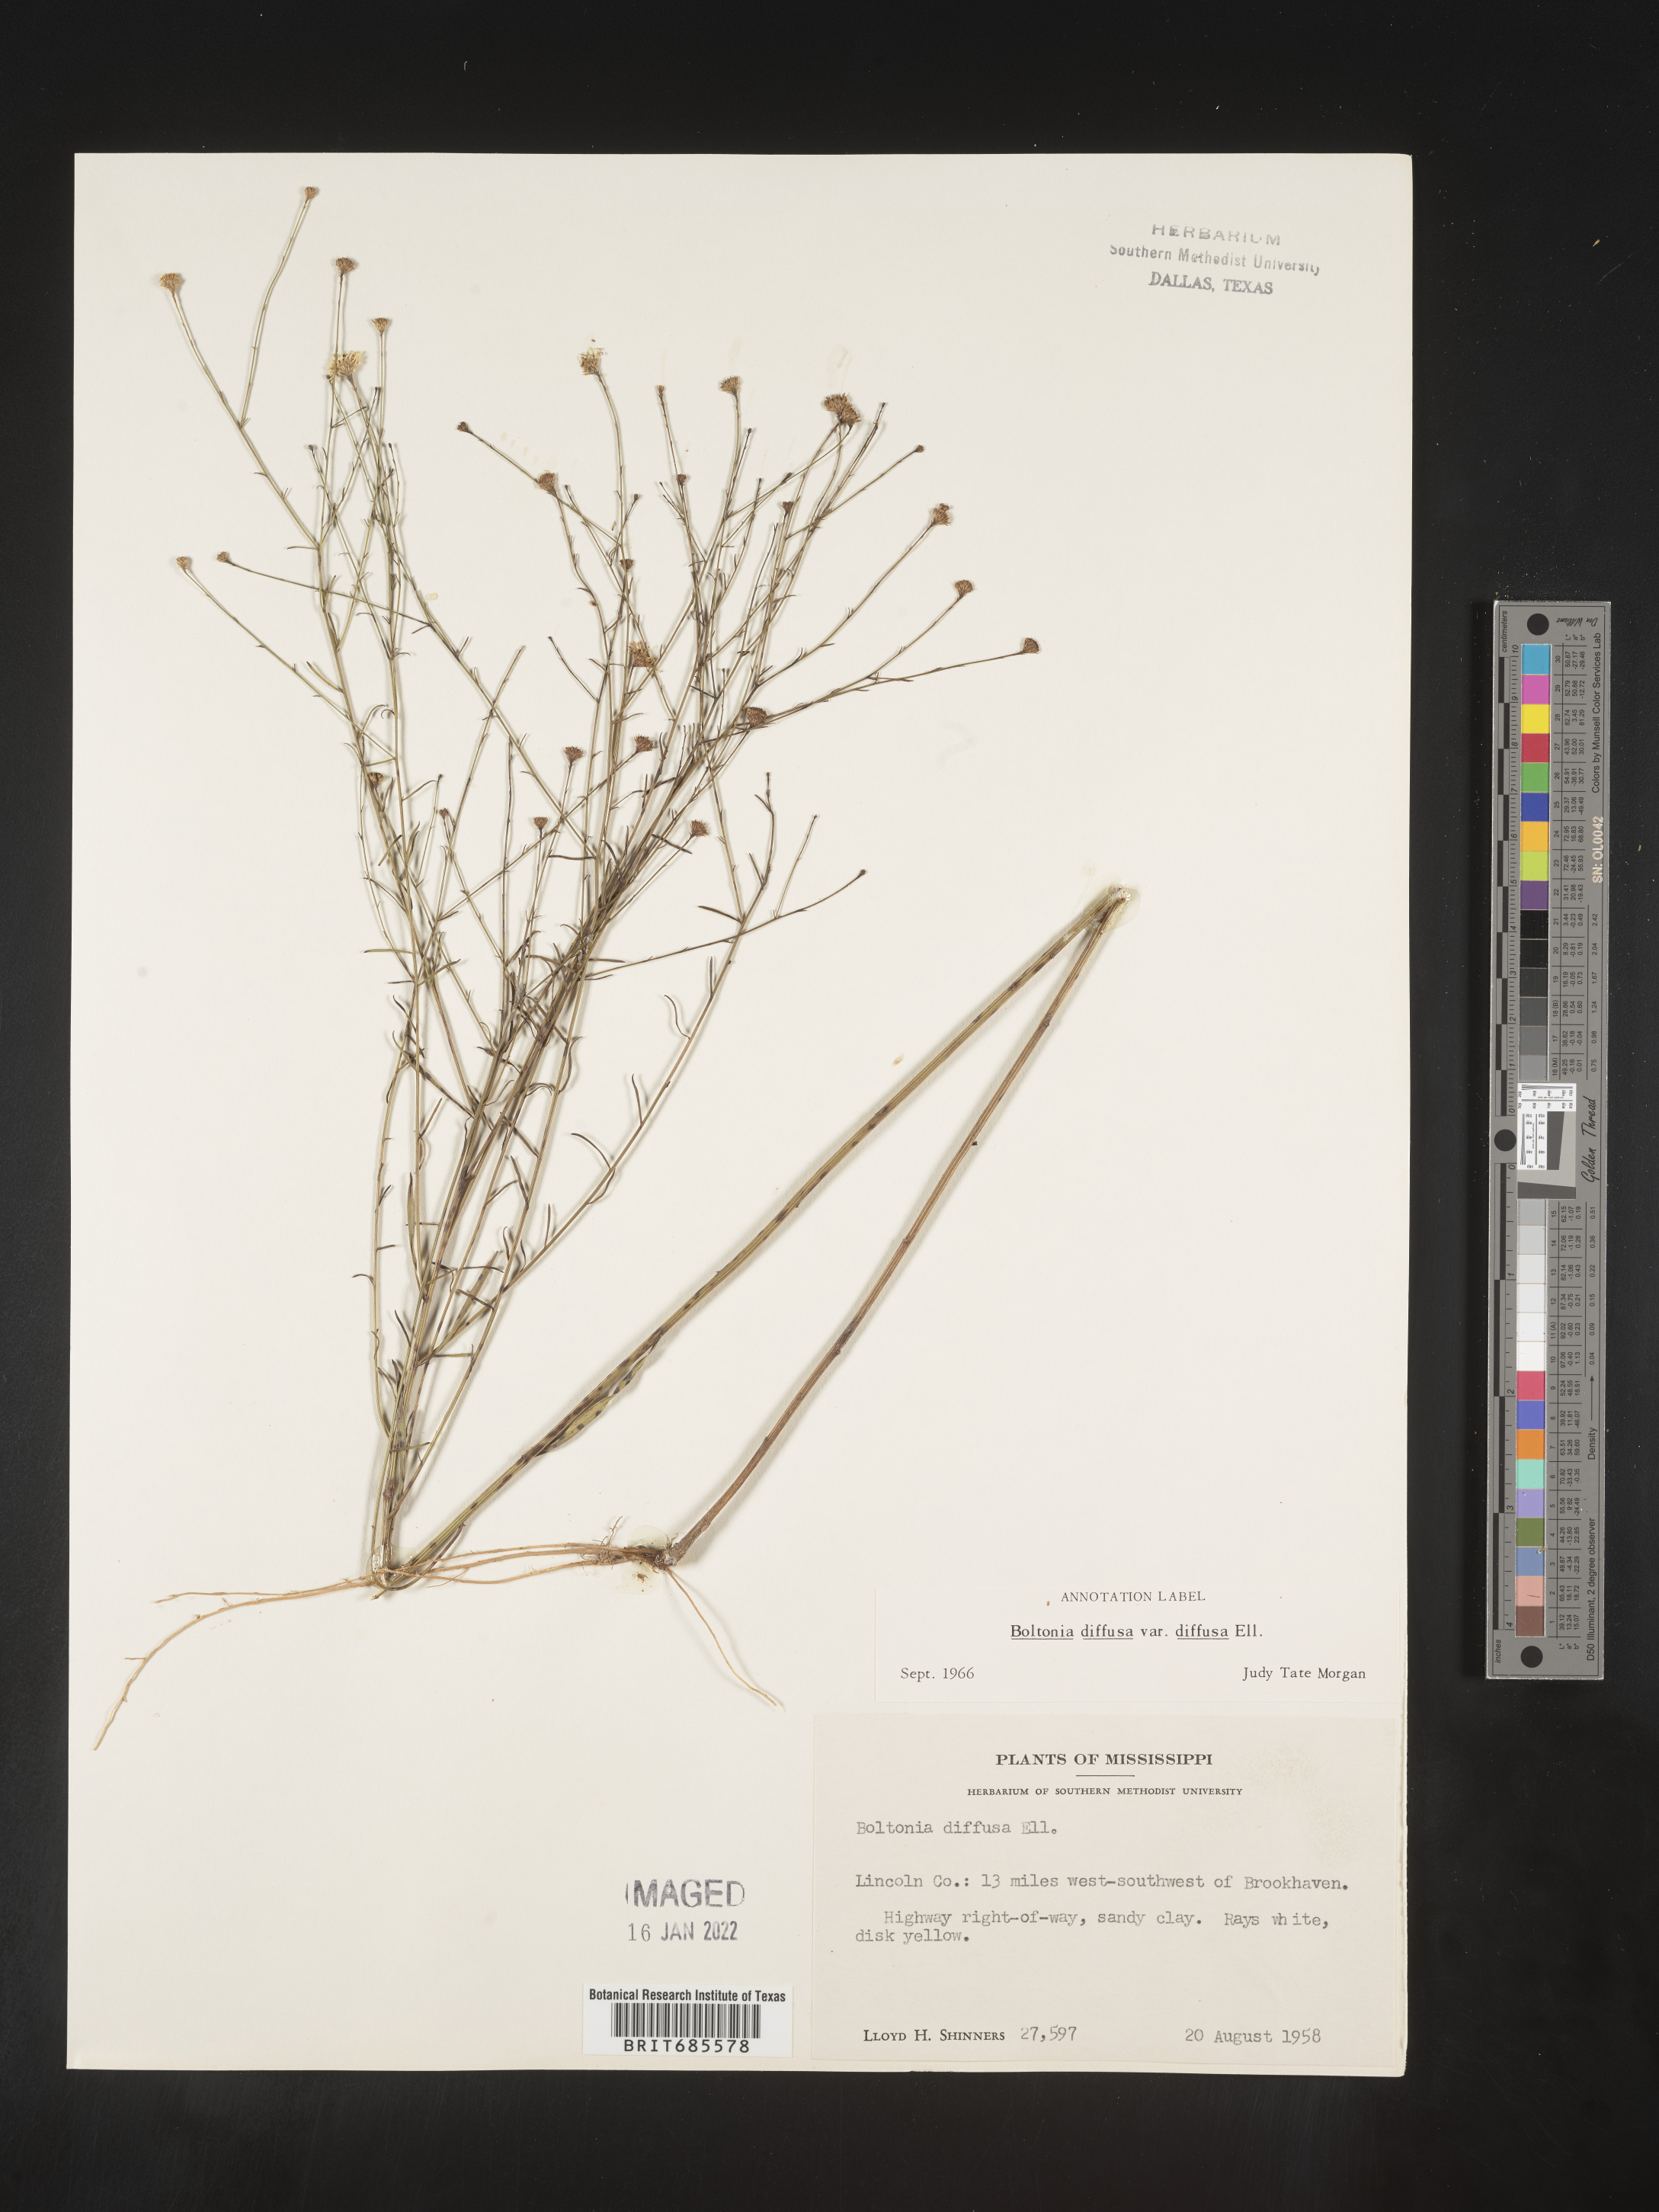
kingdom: Plantae
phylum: Tracheophyta
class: Magnoliopsida
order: Asterales
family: Asteraceae
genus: Boltonia
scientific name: Boltonia diffusa
